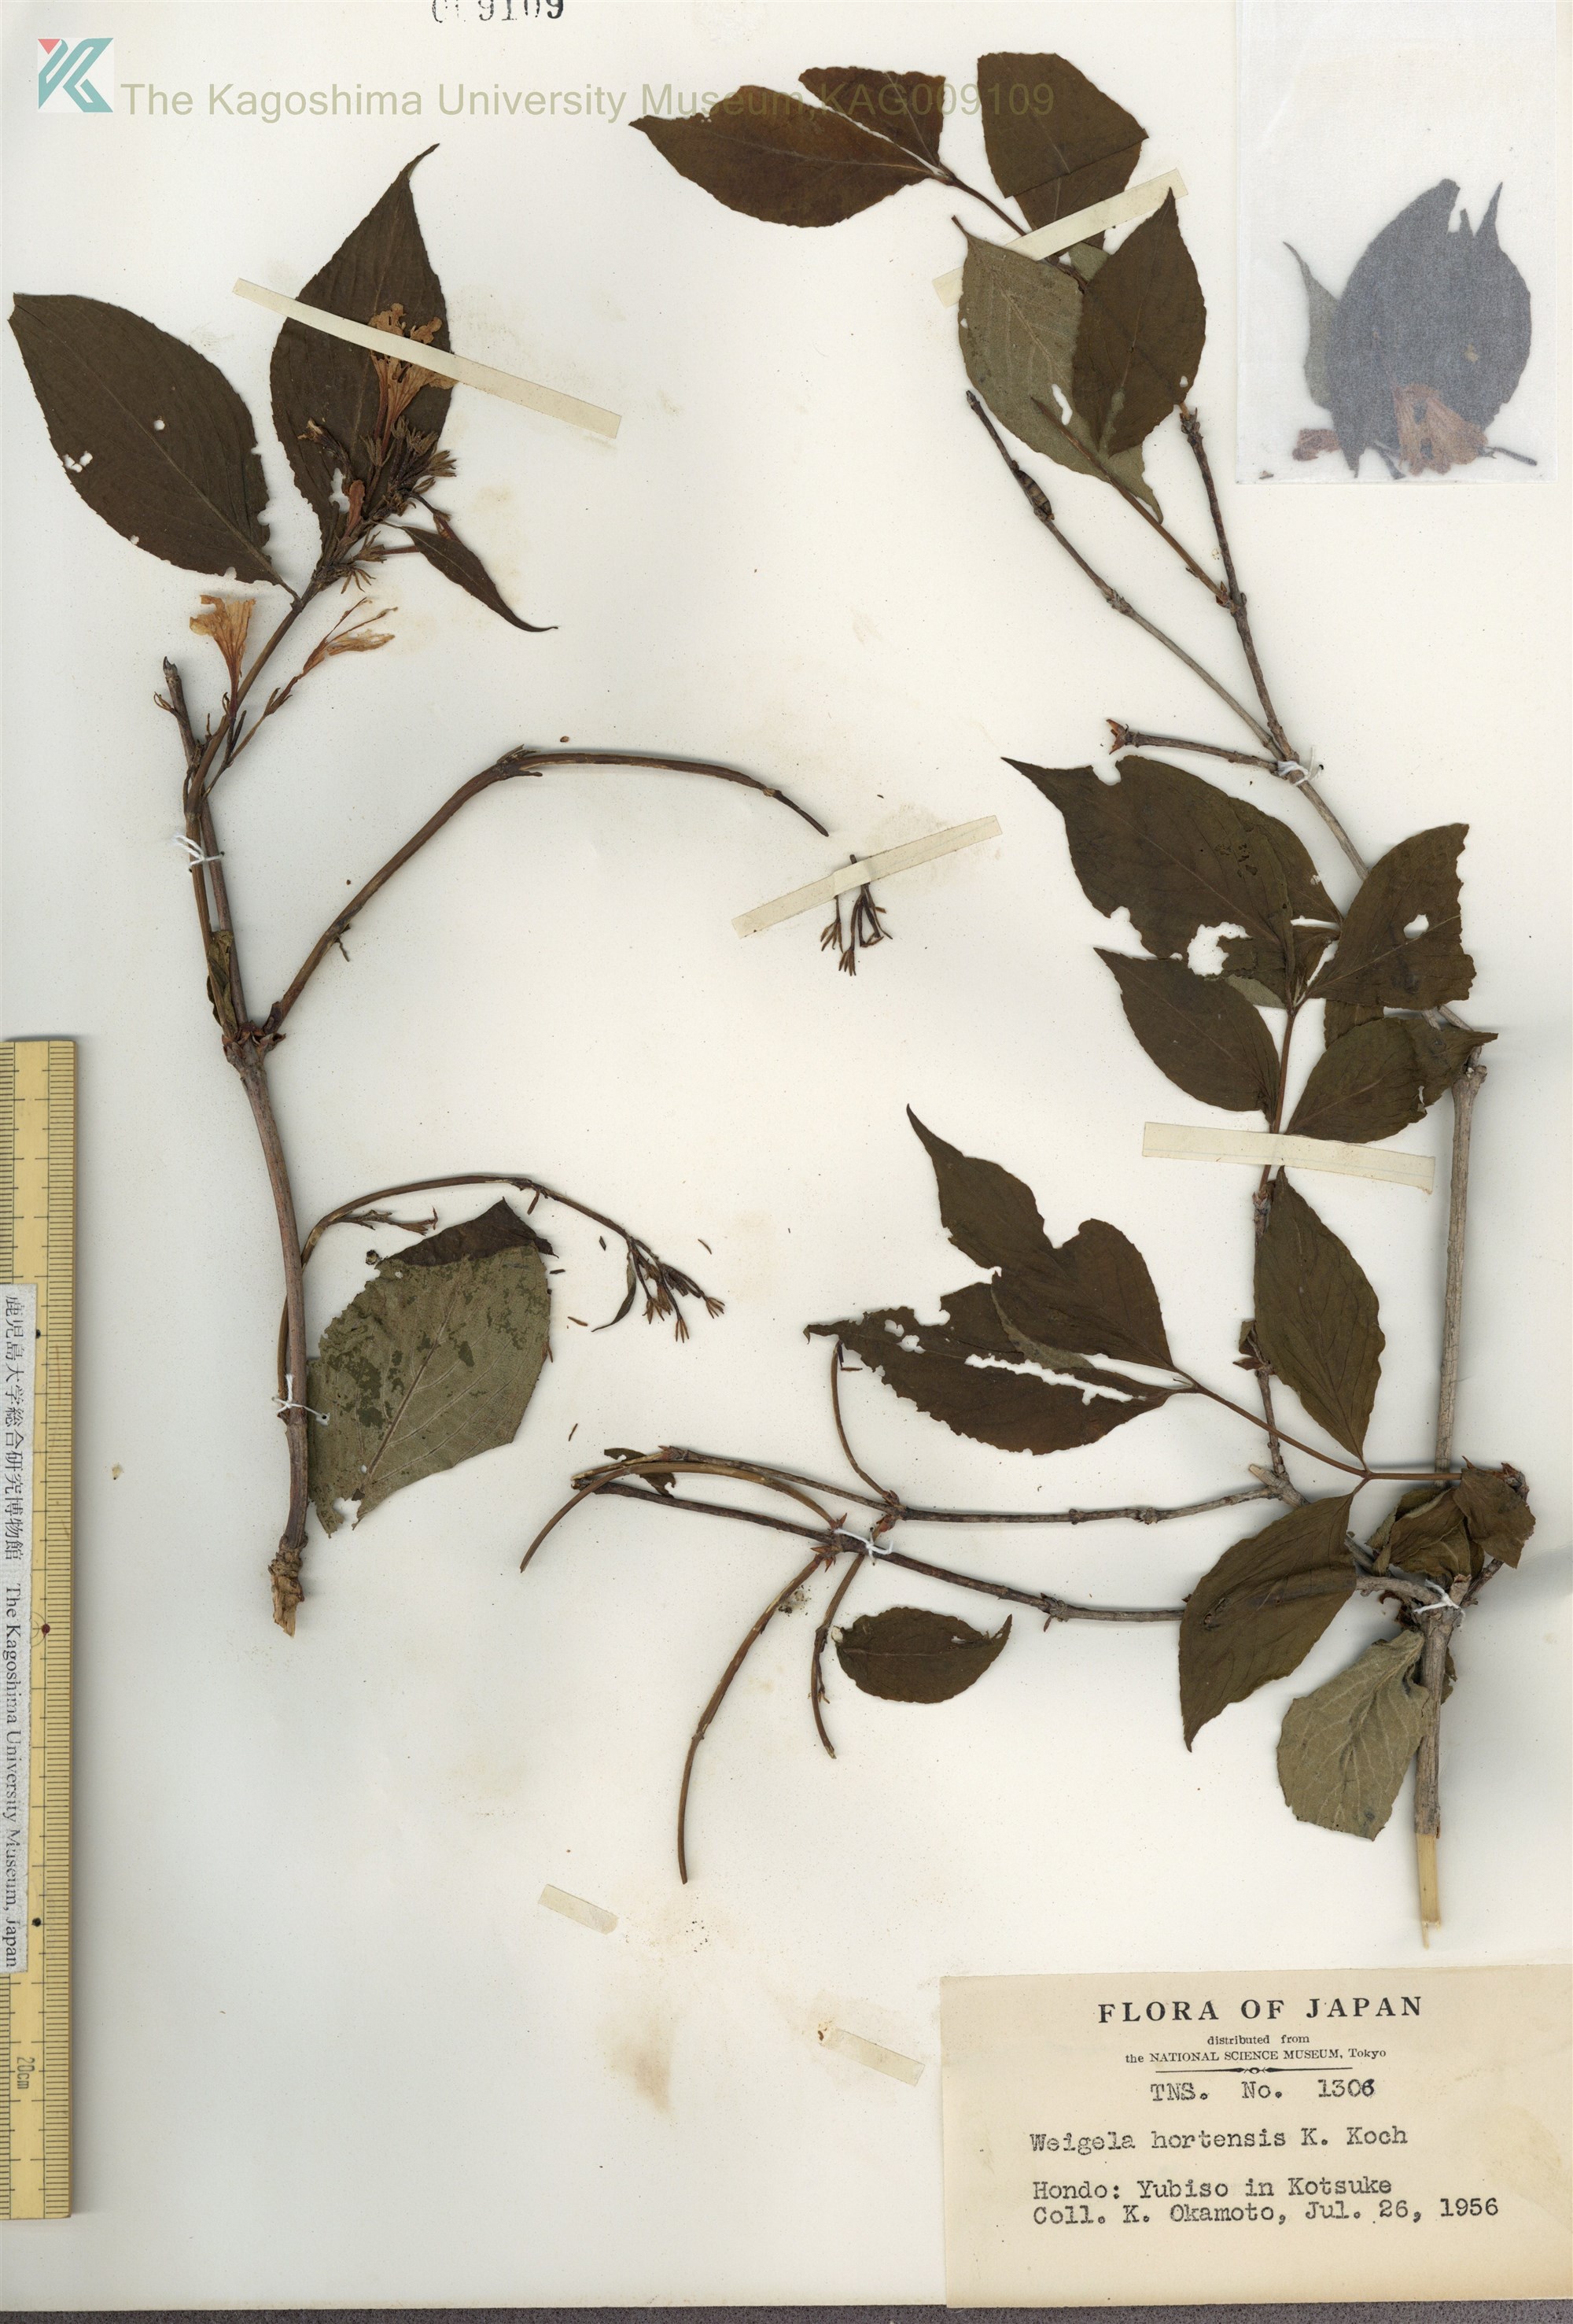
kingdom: Plantae
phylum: Tracheophyta
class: Magnoliopsida
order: Dipsacales
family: Caprifoliaceae
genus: Weigela
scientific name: Weigela hortensis
